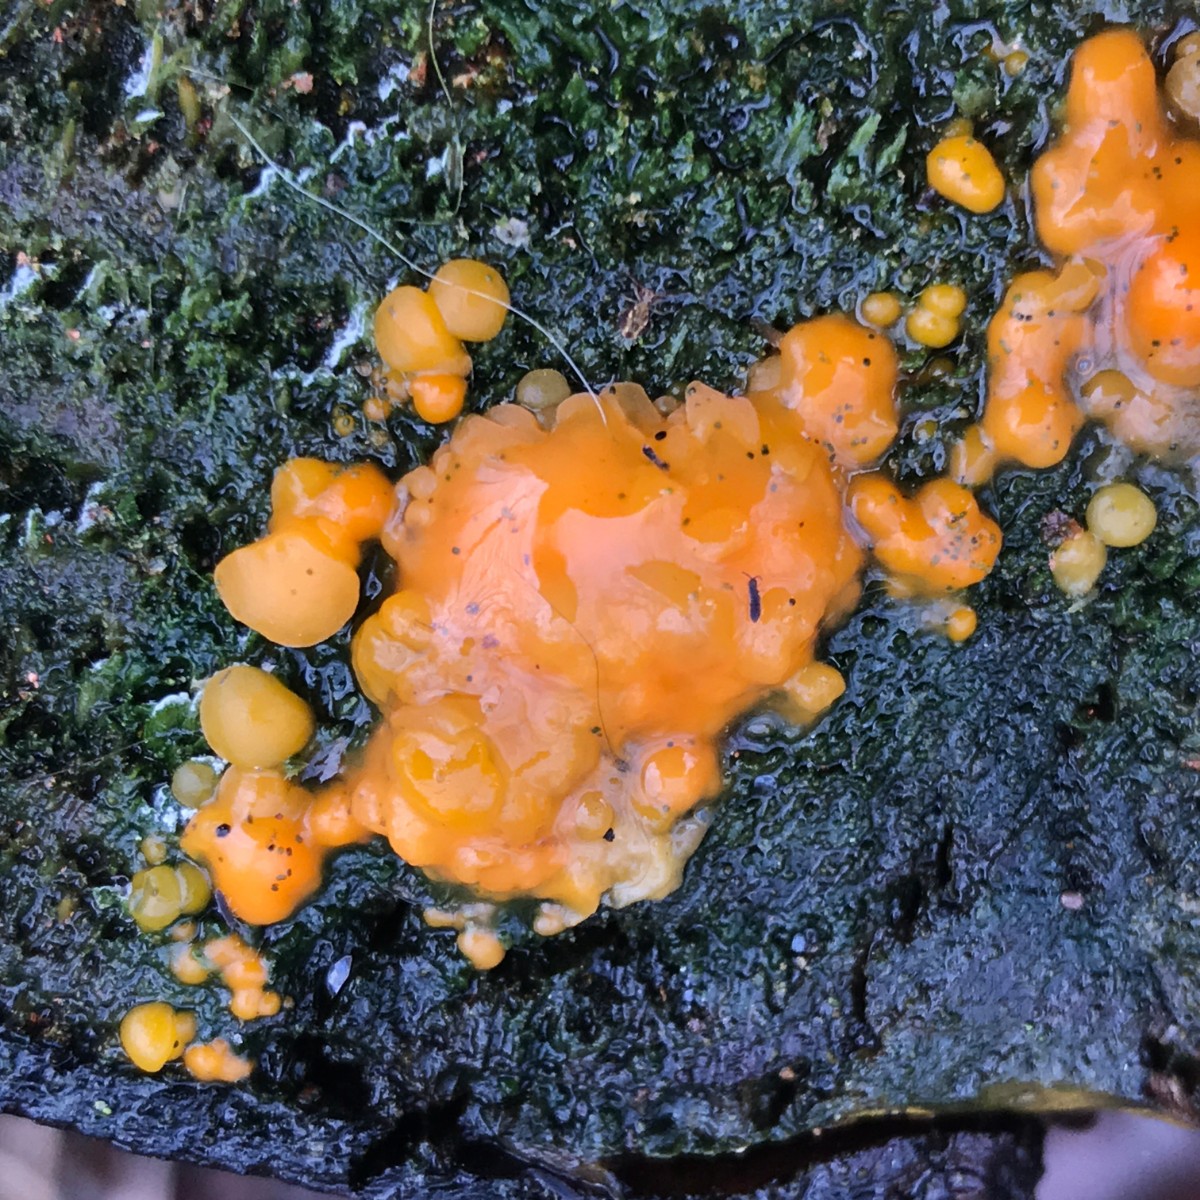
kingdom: Fungi
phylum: Basidiomycota
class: Dacrymycetes
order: Dacrymycetales
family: Dacrymycetaceae
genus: Dacrymyces
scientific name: Dacrymyces stillatus
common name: almindelig tåresvamp
